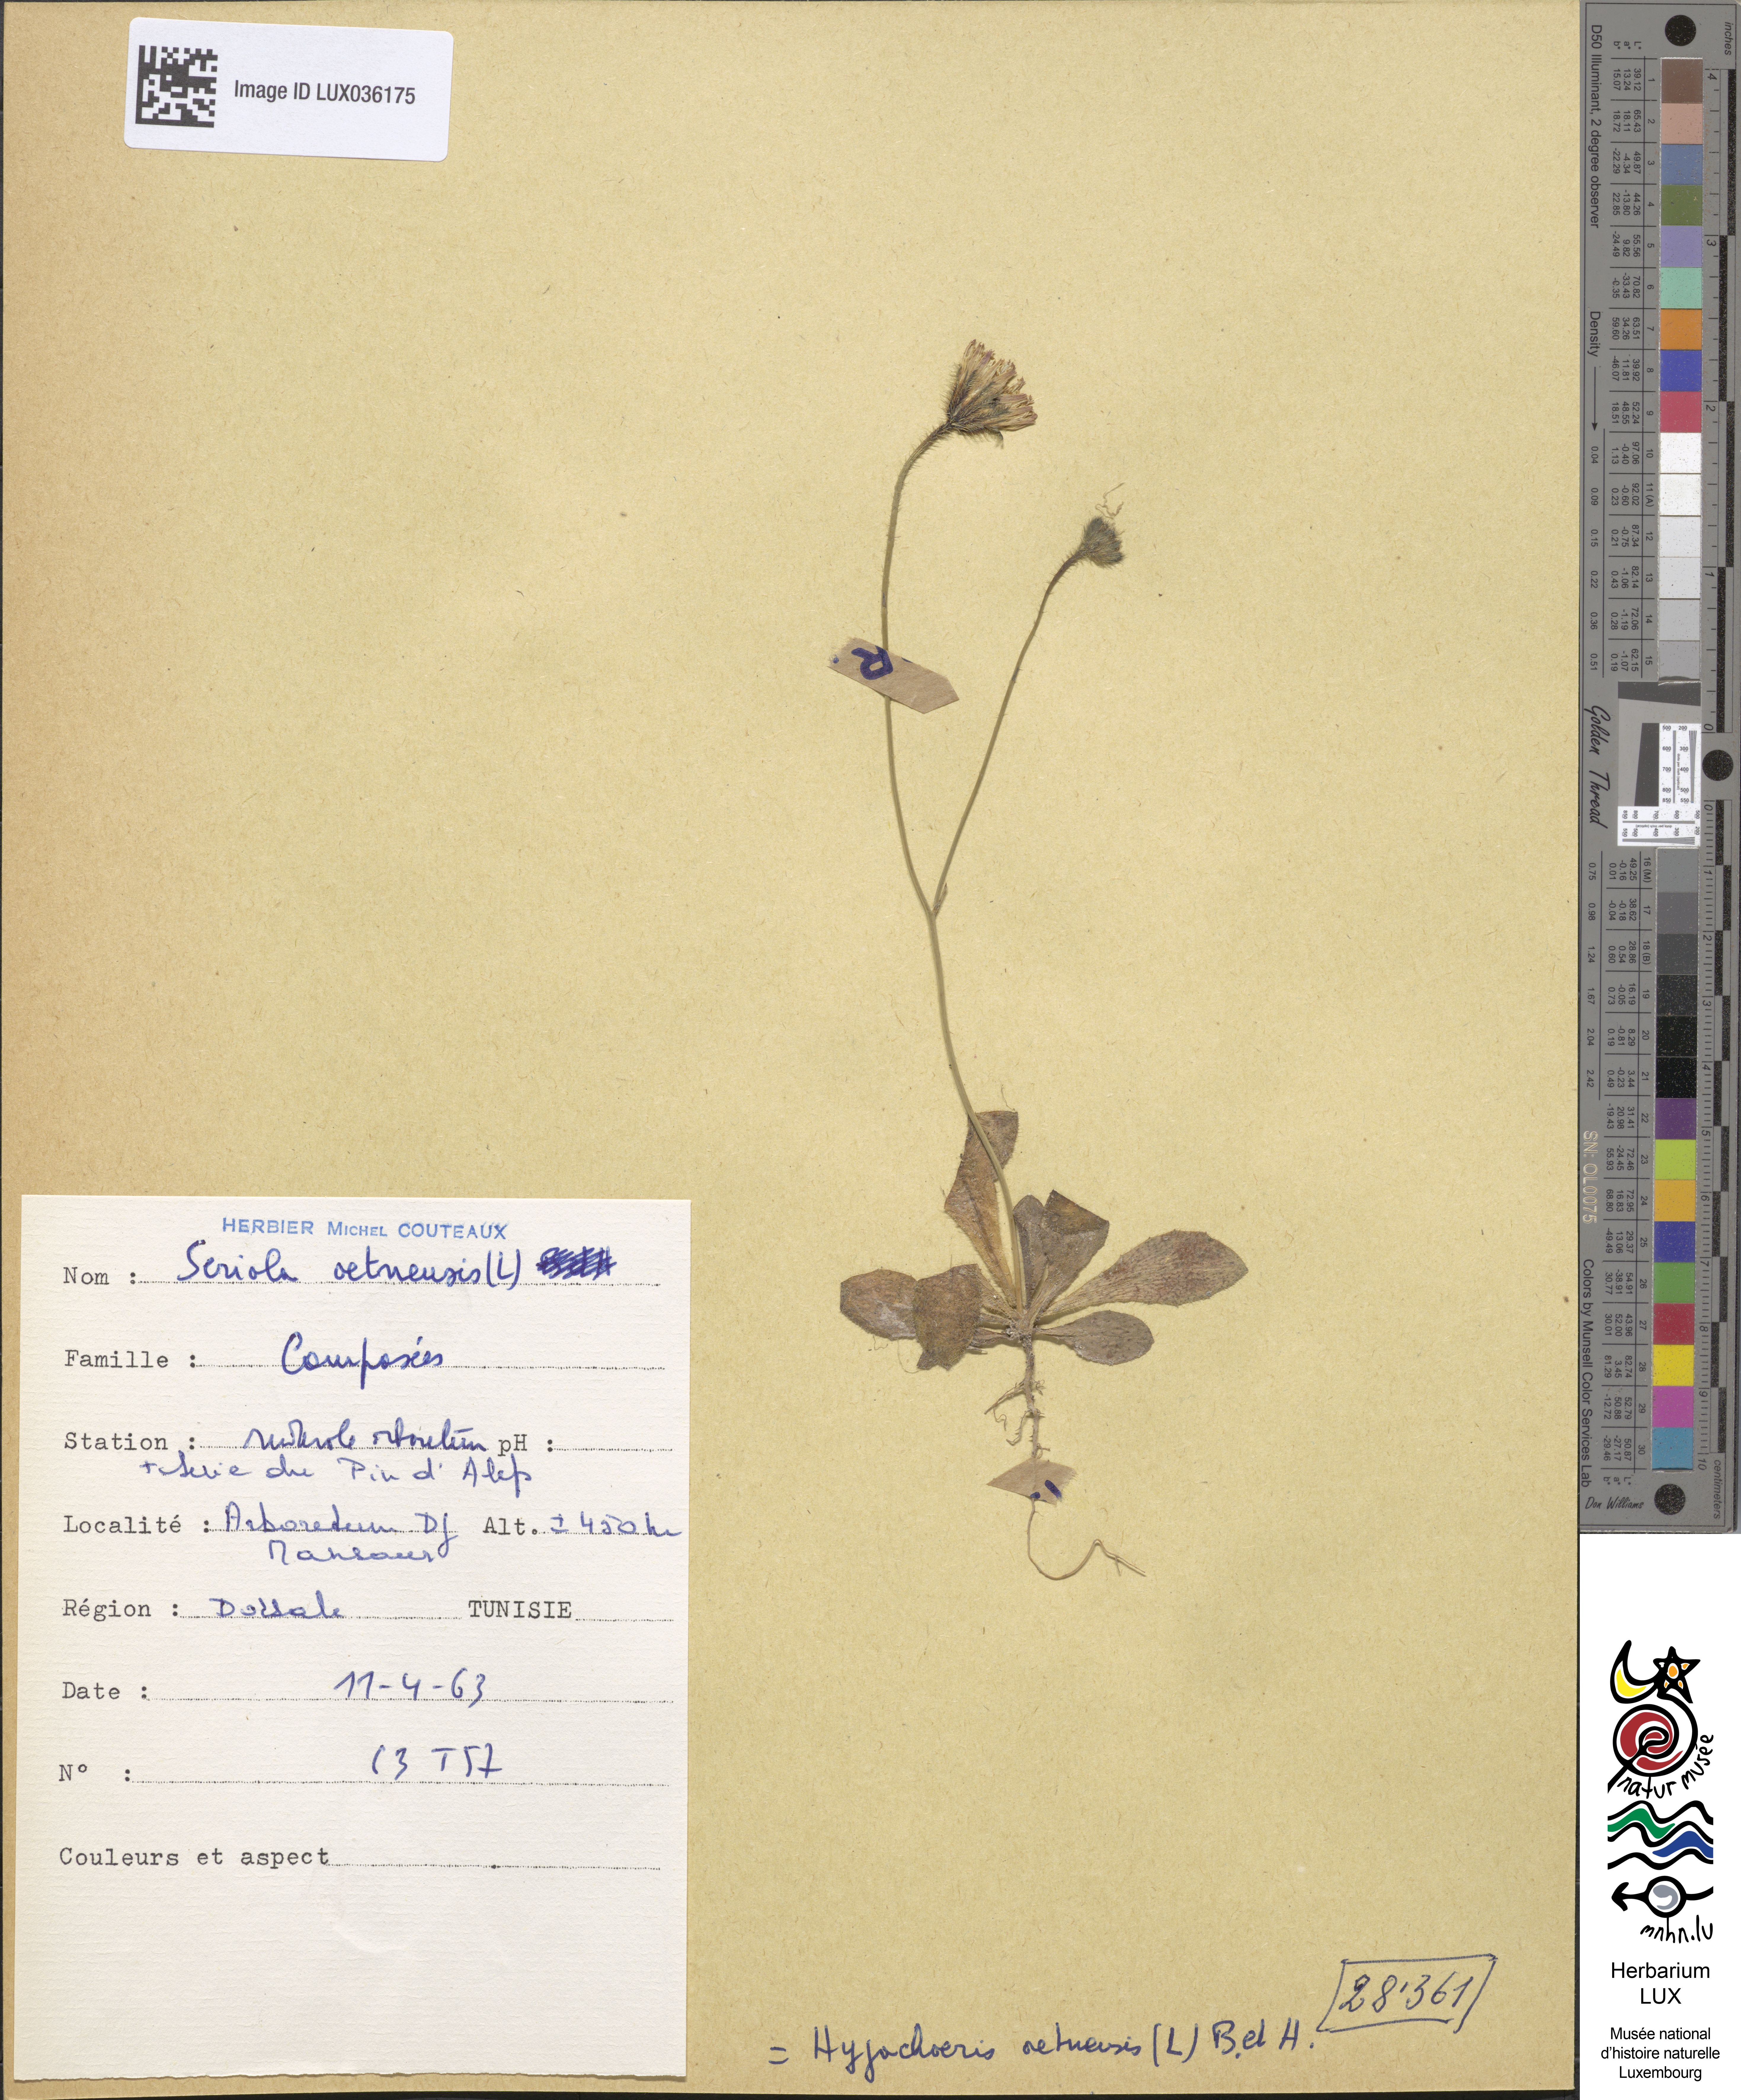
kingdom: Plantae
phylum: Tracheophyta
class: Magnoliopsida
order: Asterales
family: Asteraceae
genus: Hypochoeris
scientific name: Hypochoeris
